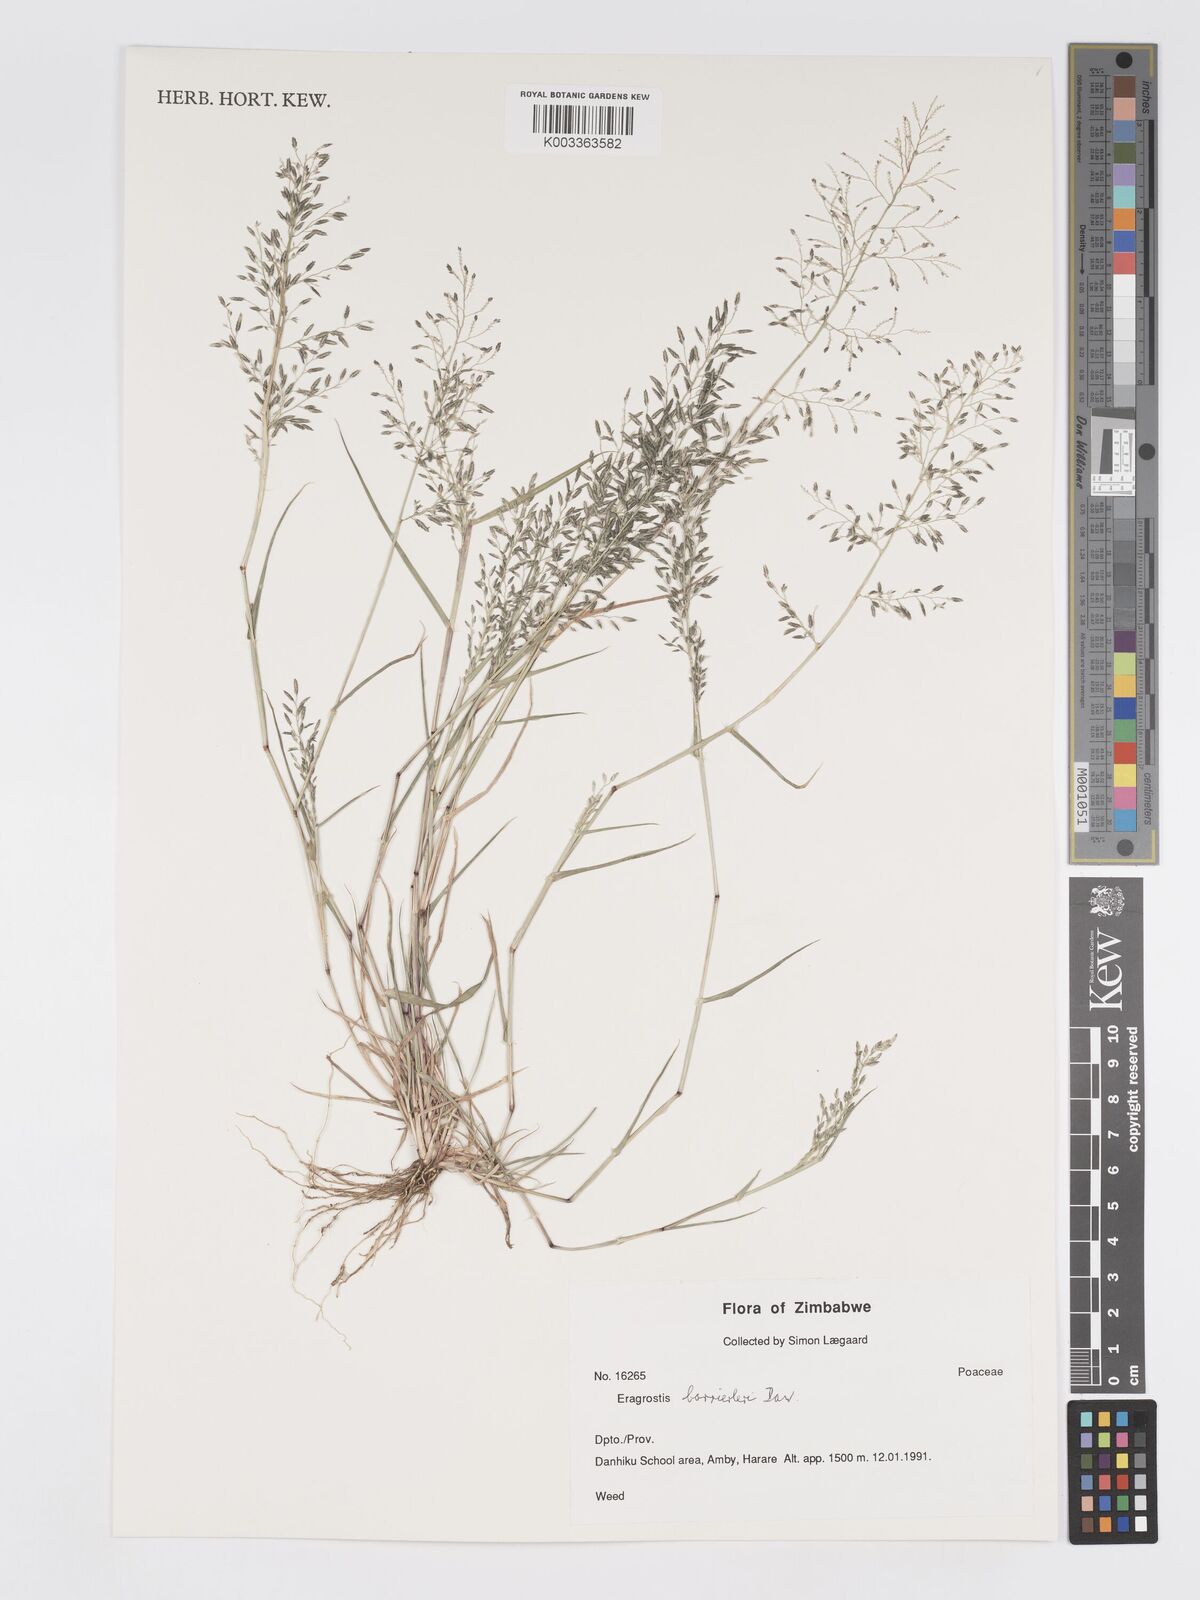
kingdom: Plantae
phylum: Tracheophyta
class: Liliopsida
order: Poales
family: Poaceae
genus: Eragrostis
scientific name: Eragrostis barrelieri
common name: Mediterranean lovegrass
